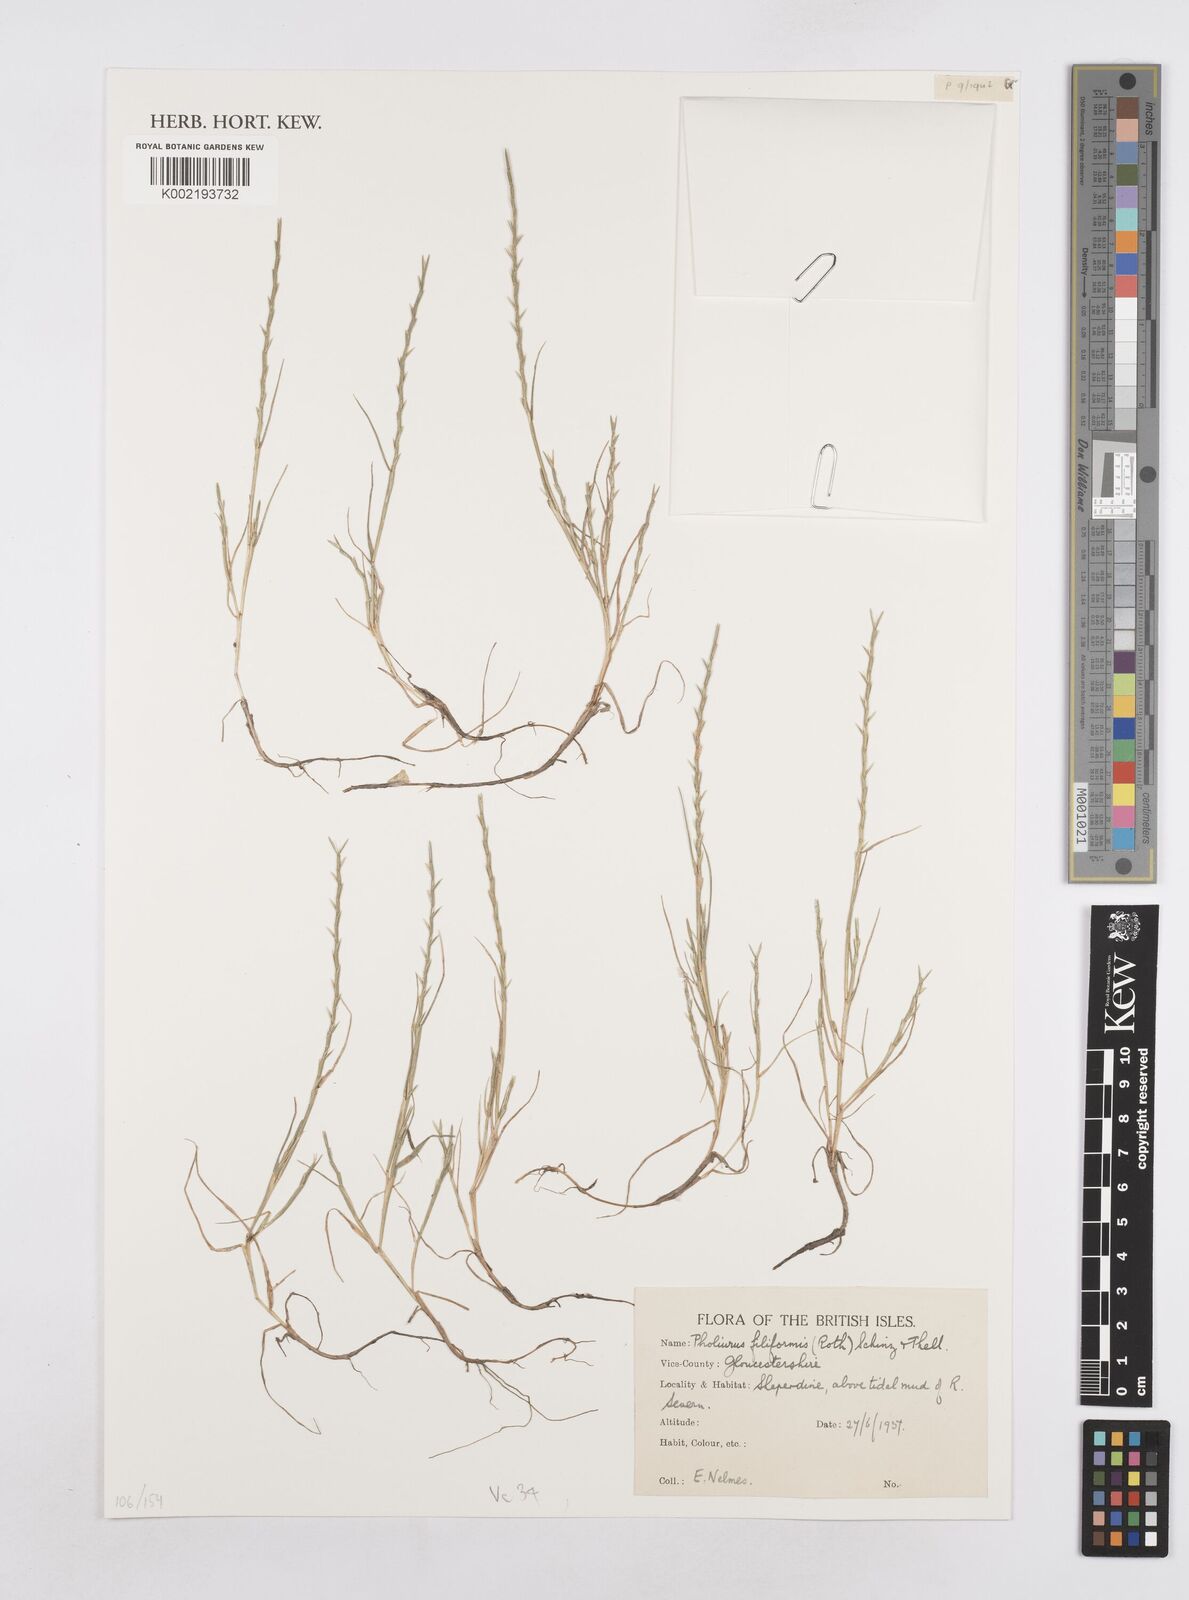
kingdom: Plantae
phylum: Tracheophyta
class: Liliopsida
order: Poales
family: Poaceae
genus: Parapholis
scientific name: Parapholis strigosa
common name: Hard-grass
